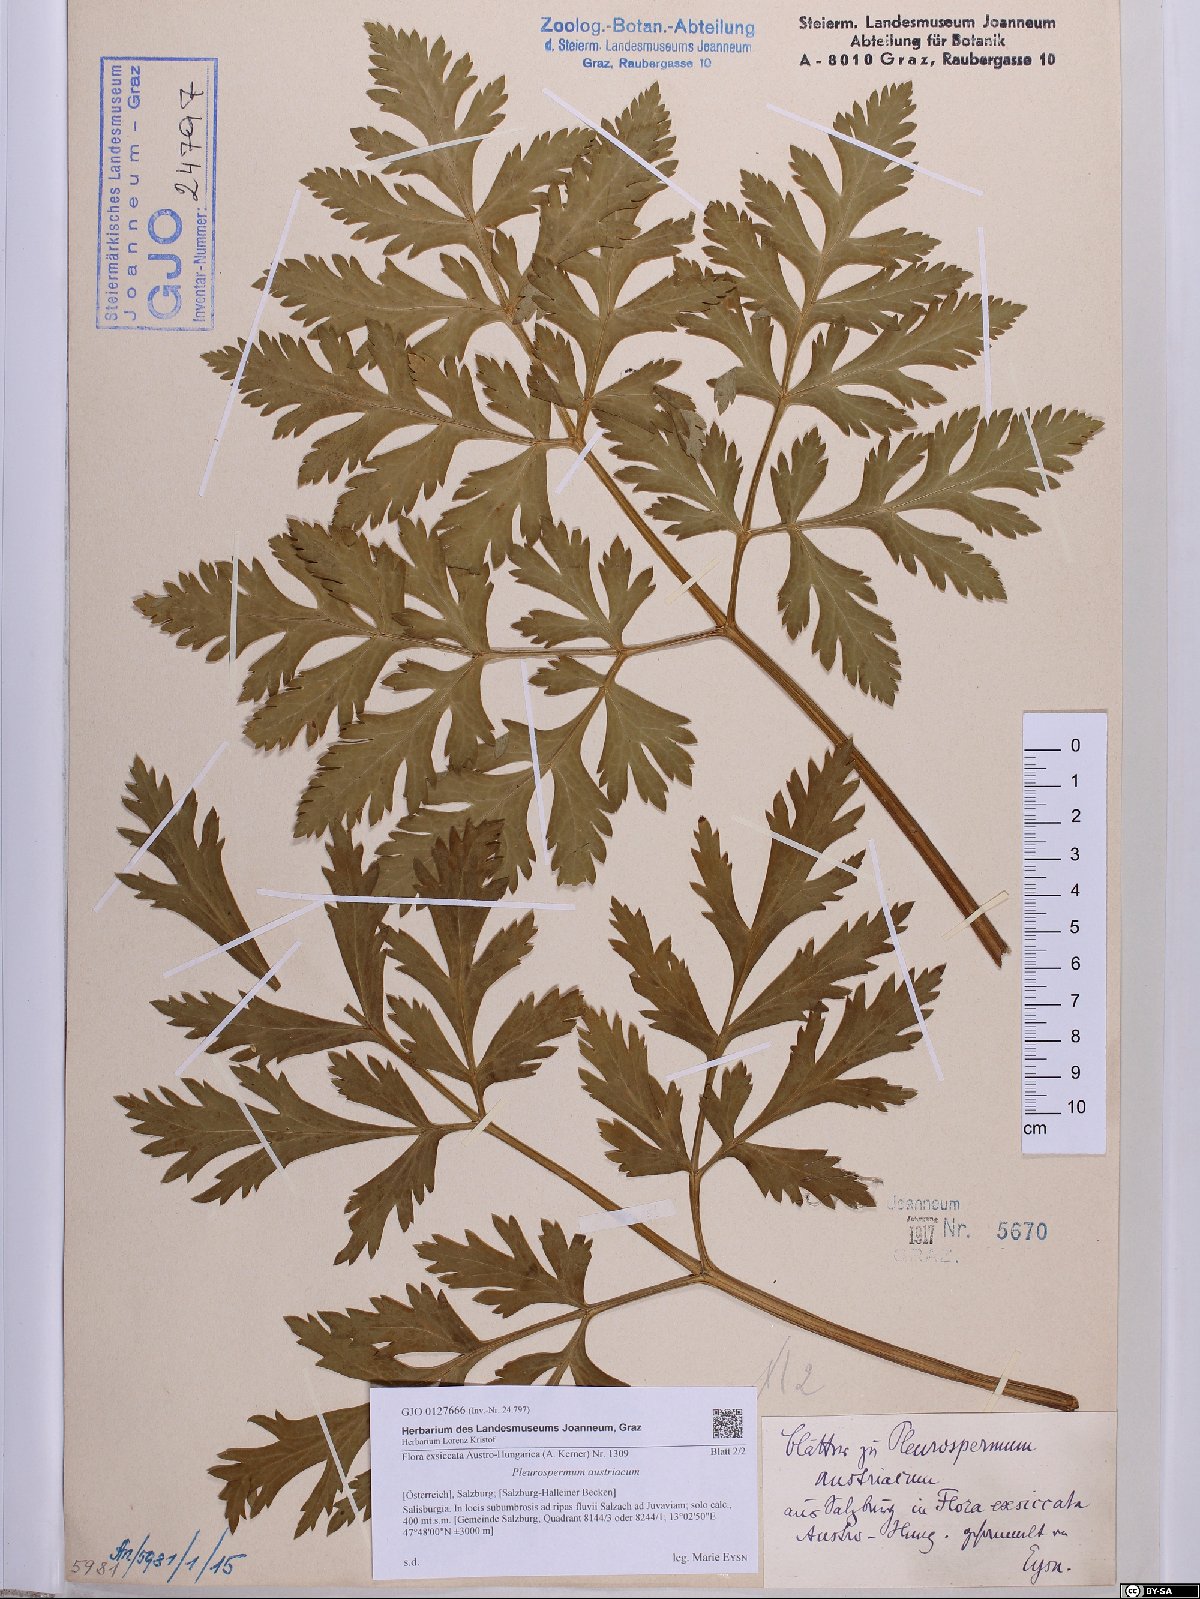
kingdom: Plantae
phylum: Tracheophyta
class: Magnoliopsida
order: Apiales
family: Apiaceae
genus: Pleurospermum
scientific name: Pleurospermum austriacum
